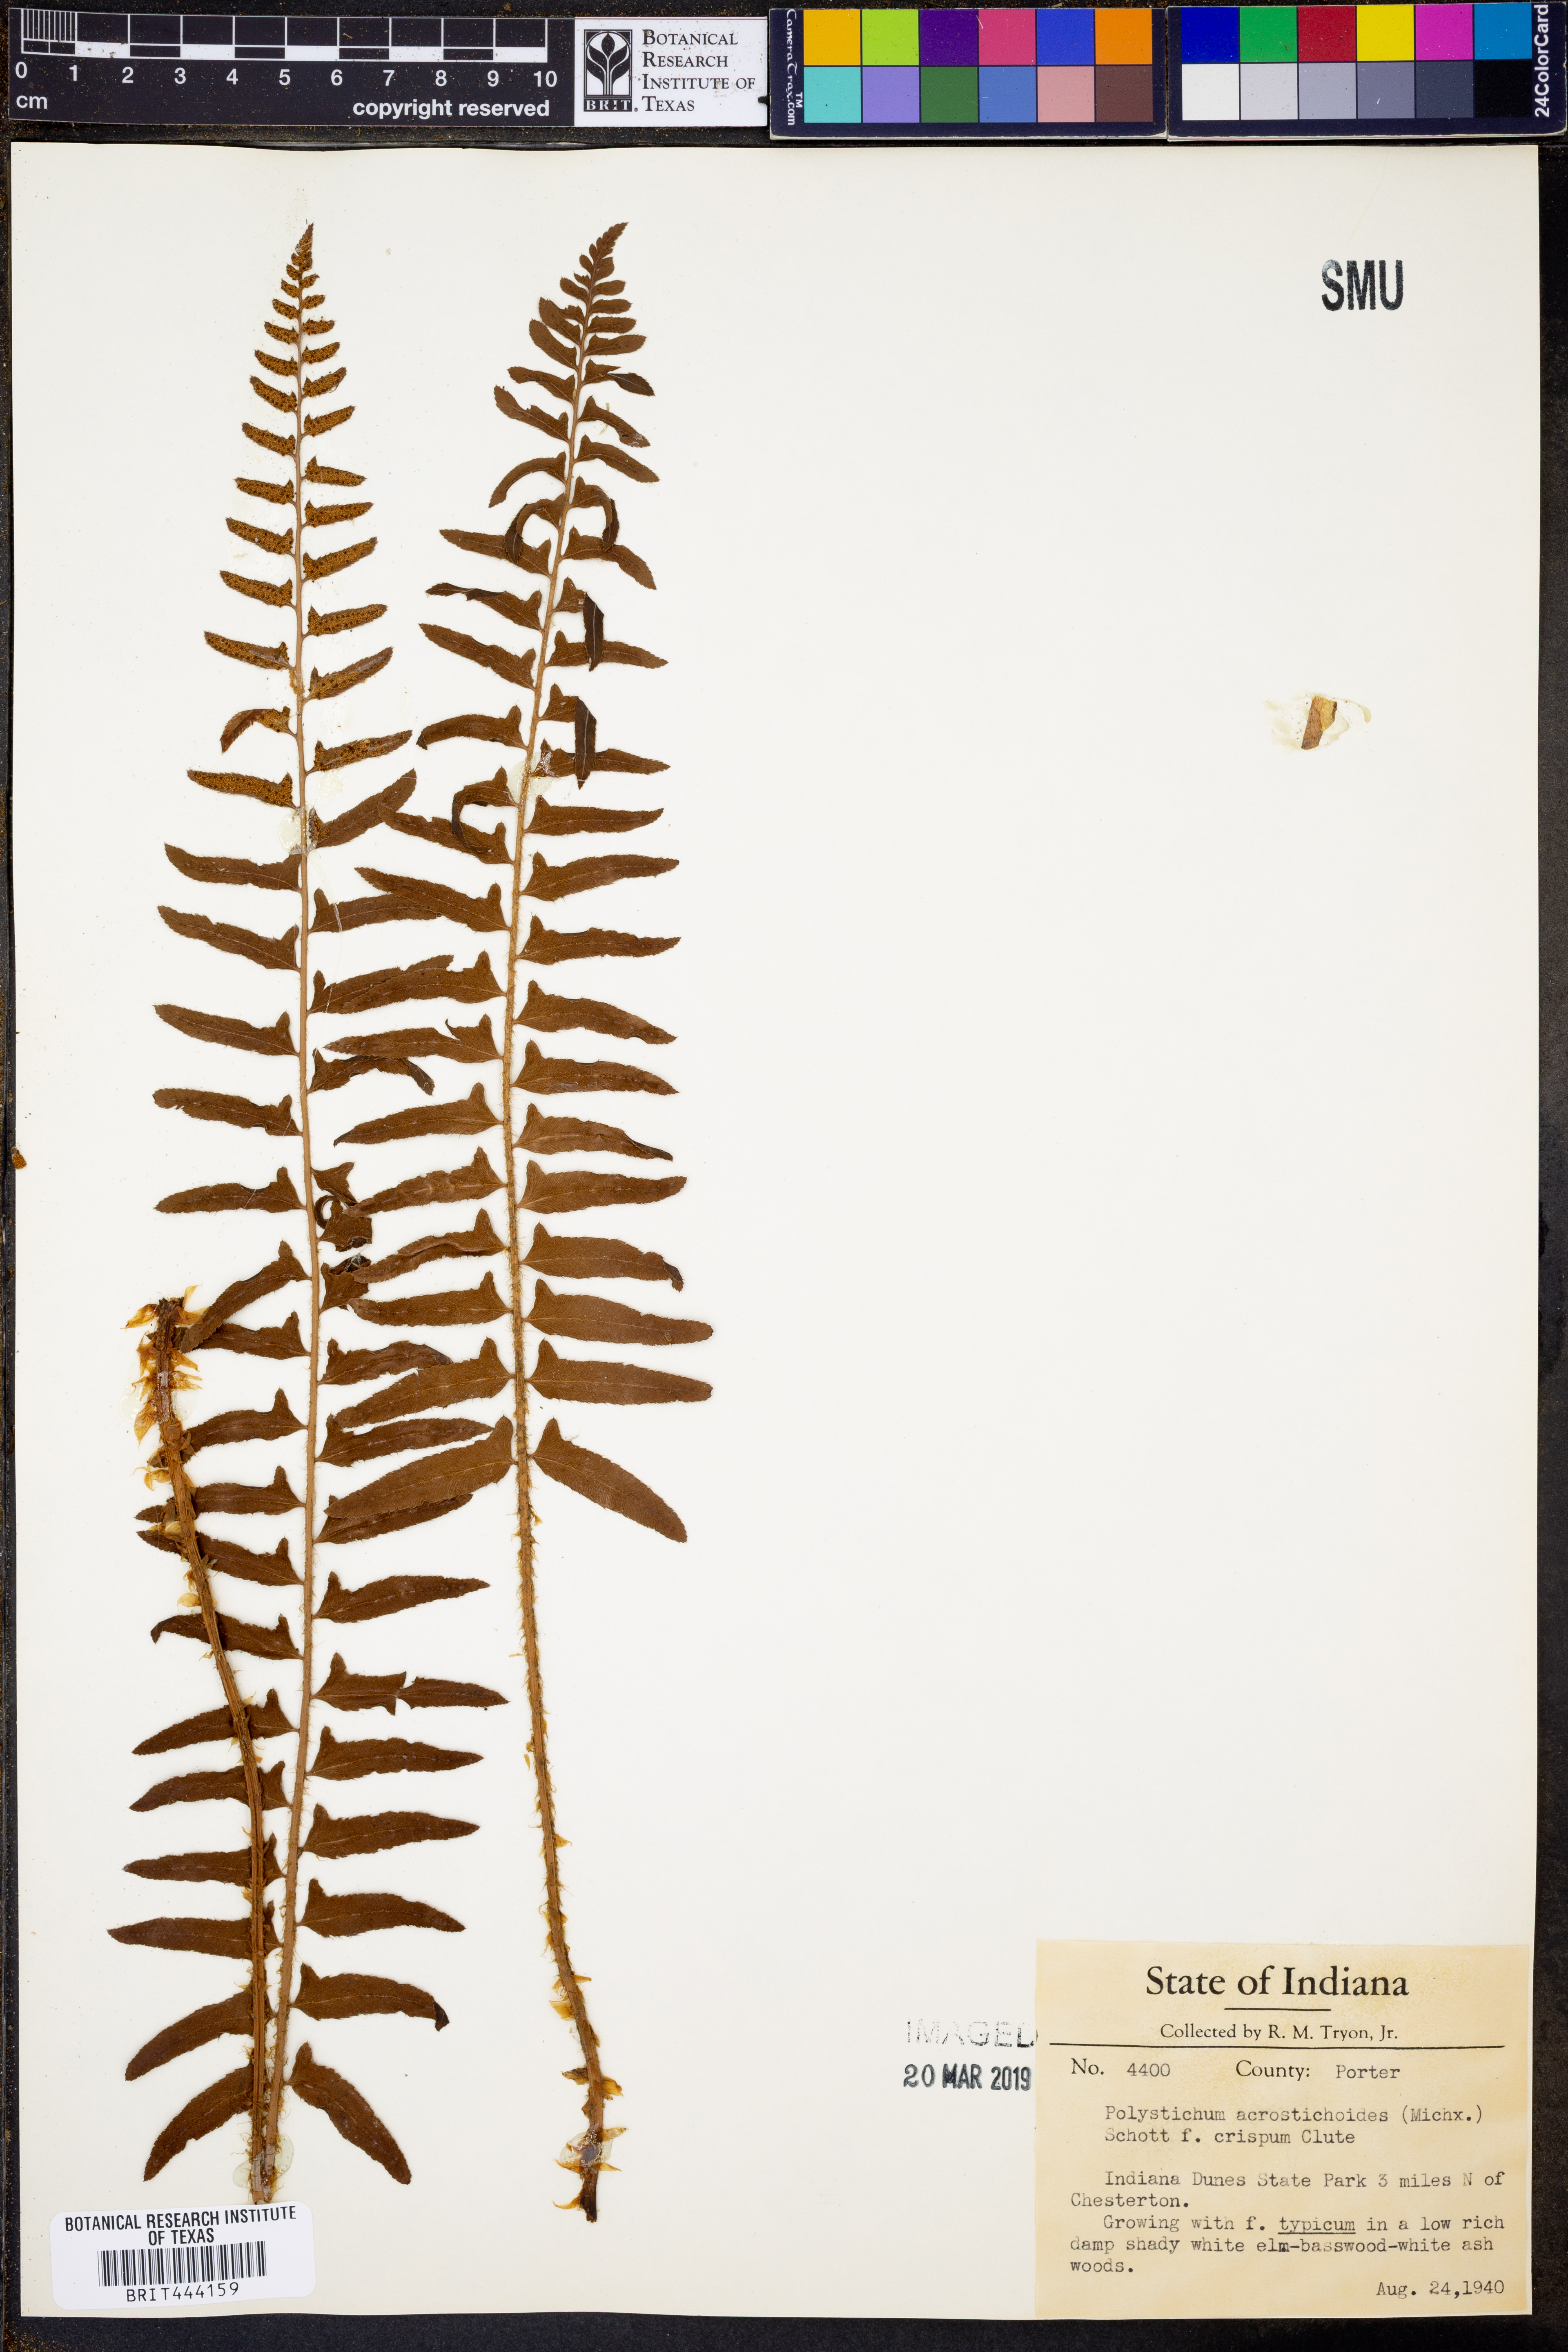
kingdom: Plantae
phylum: Tracheophyta
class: Polypodiopsida
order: Polypodiales
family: Dryopteridaceae
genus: Polystichum
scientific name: Polystichum acrostichoides
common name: Christmas fern
